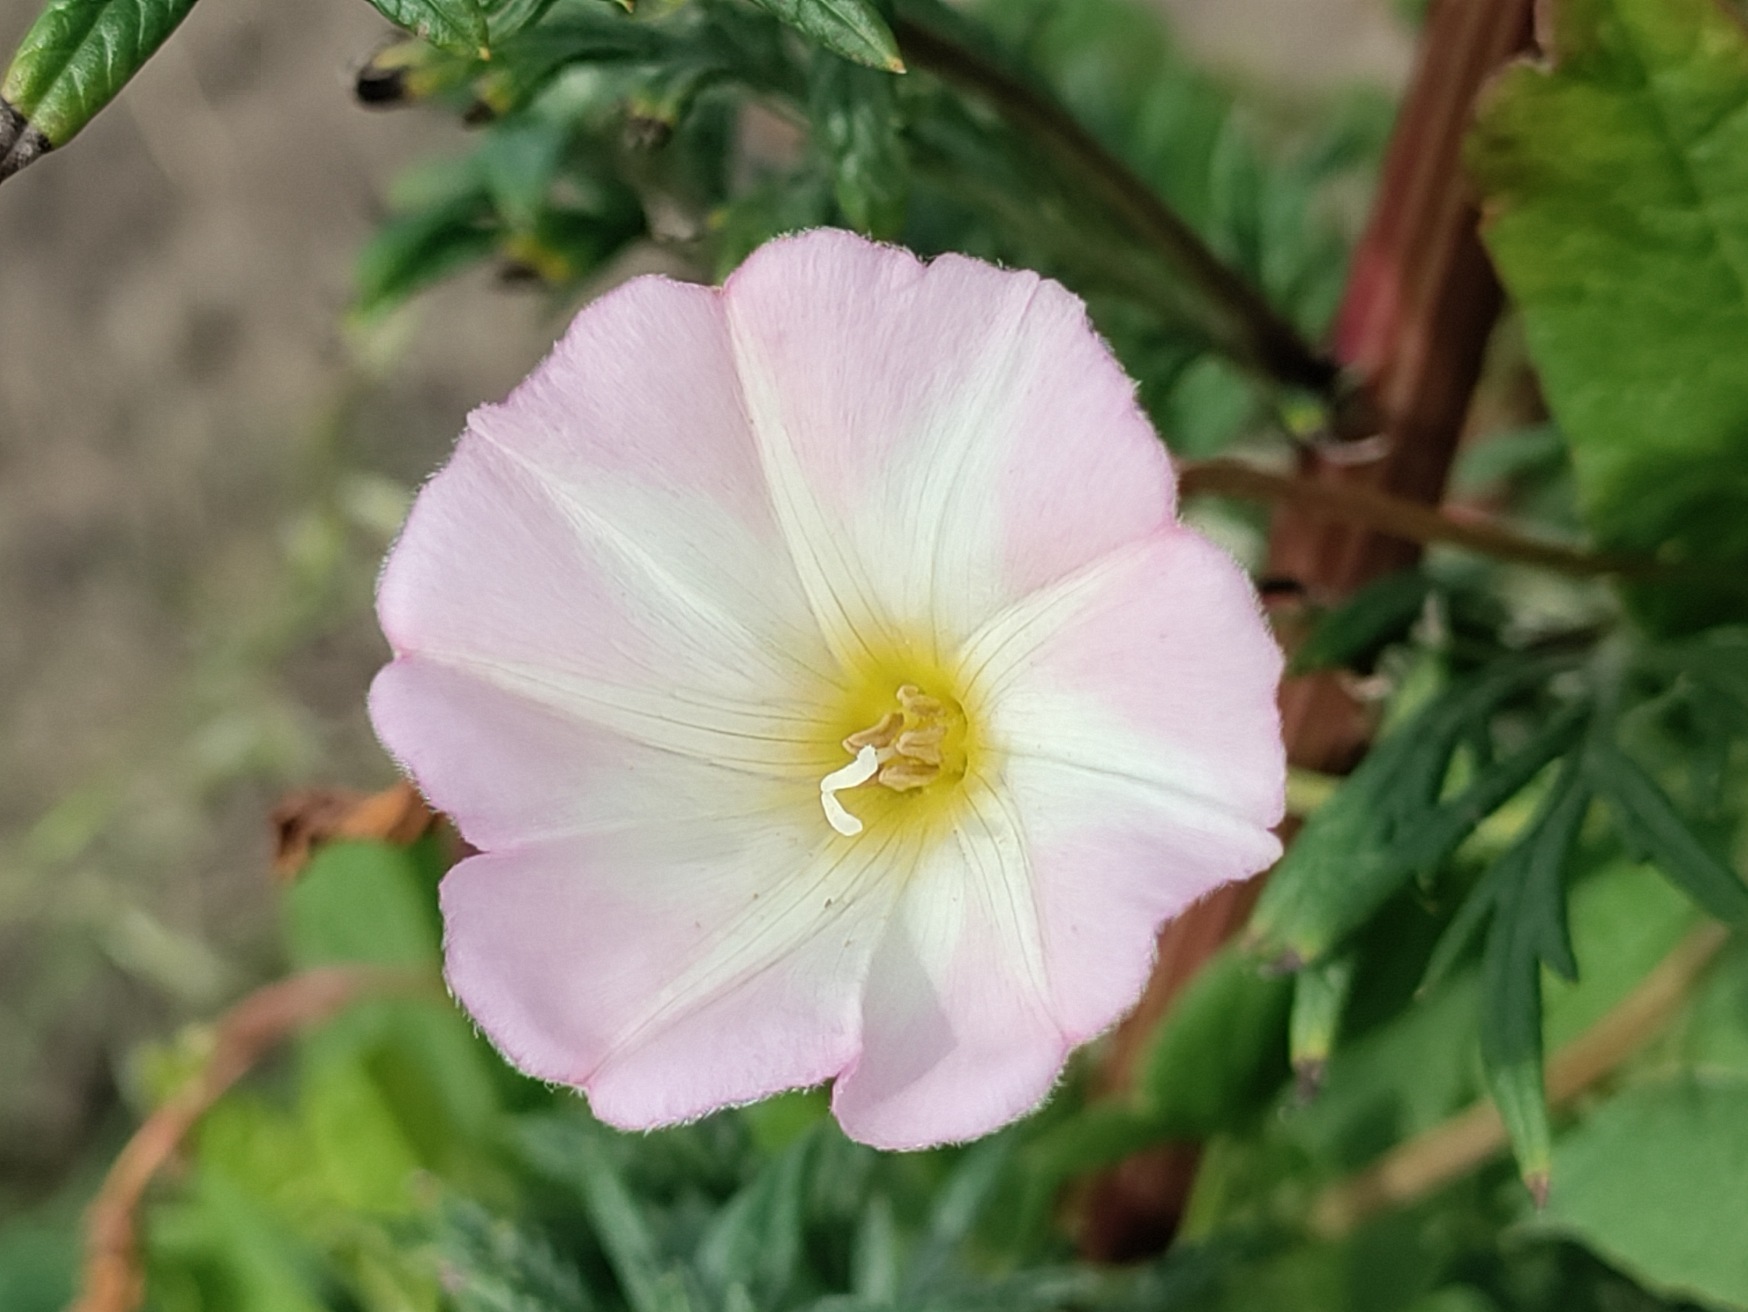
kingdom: Plantae
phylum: Tracheophyta
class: Magnoliopsida
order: Solanales
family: Convolvulaceae
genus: Convolvulus
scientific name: Convolvulus arvensis
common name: Ager-snerle
